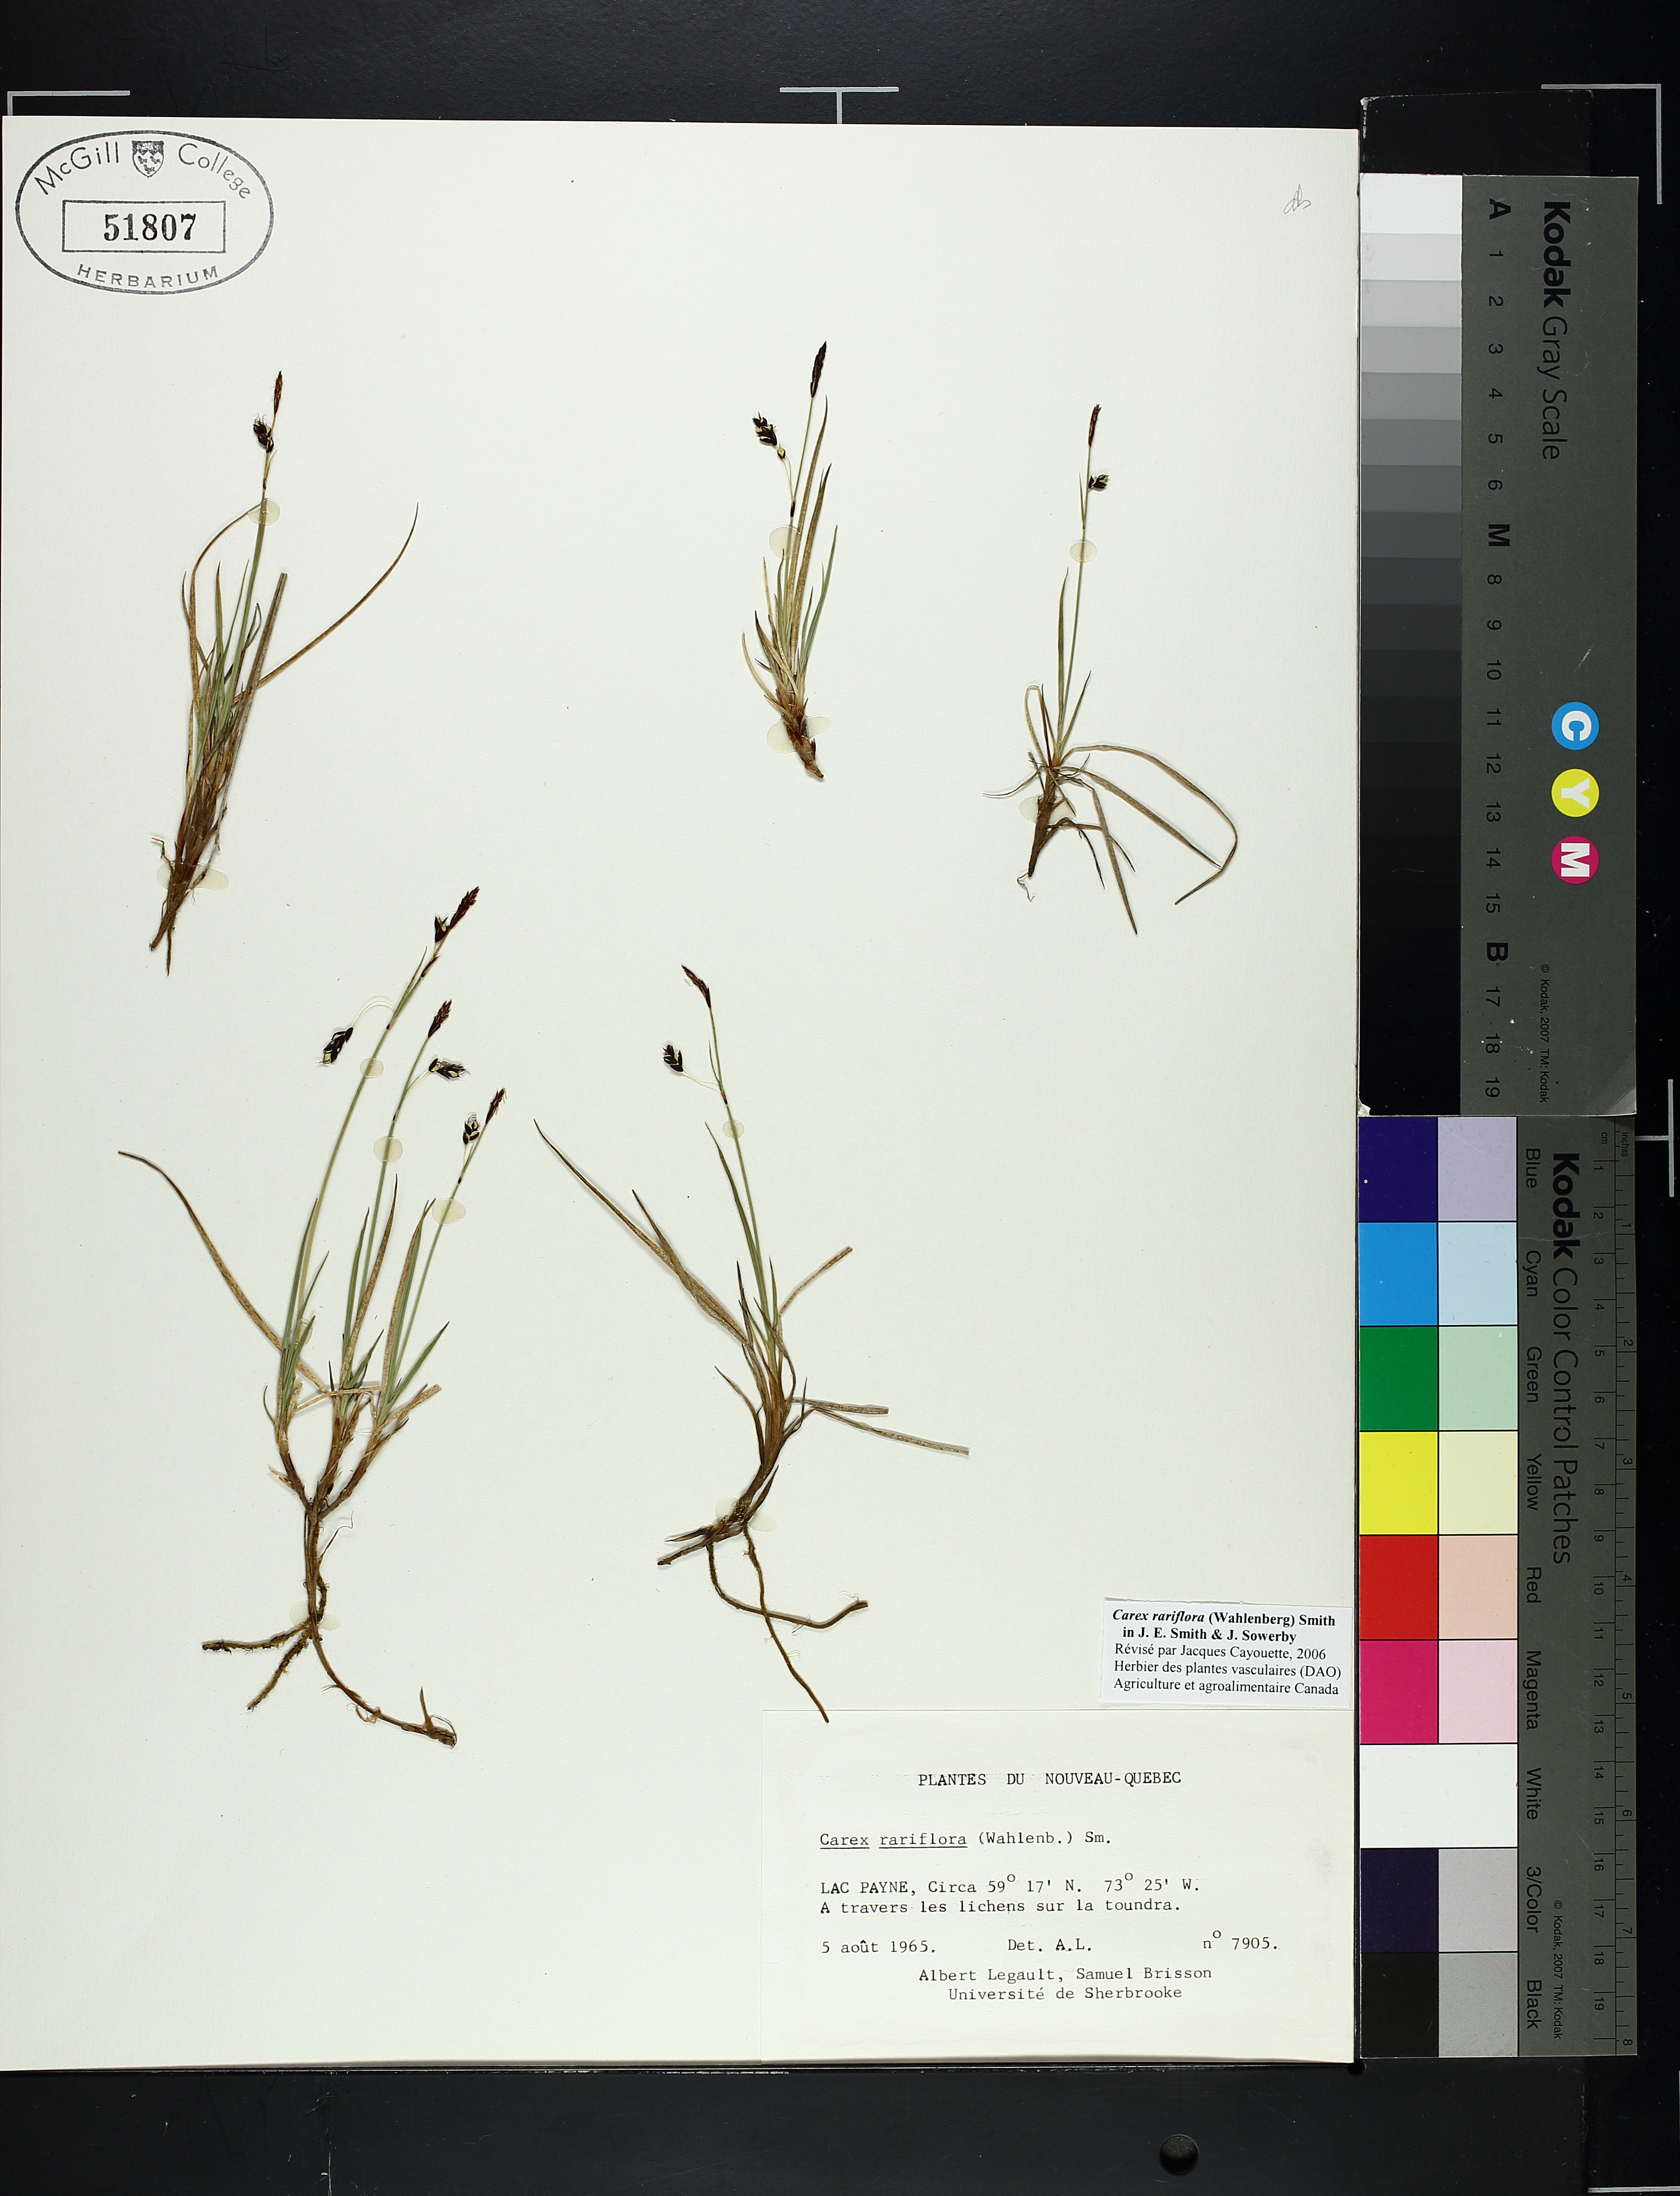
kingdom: Plantae
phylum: Tracheophyta
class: Liliopsida
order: Poales
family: Cyperaceae
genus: Carex
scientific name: Carex rariflora
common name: Loose-flowered alpine sedge
